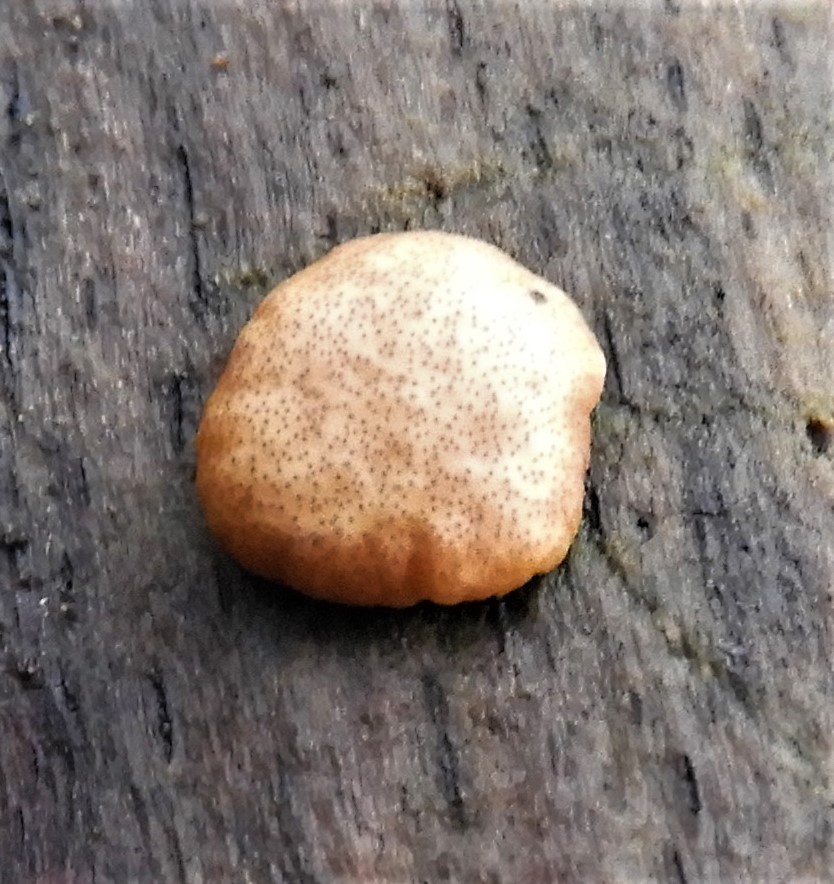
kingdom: Fungi
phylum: Ascomycota
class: Sordariomycetes
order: Hypocreales
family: Hypocreaceae
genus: Trichoderma
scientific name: Trichoderma europaeum
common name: rosabrun kødkerne
